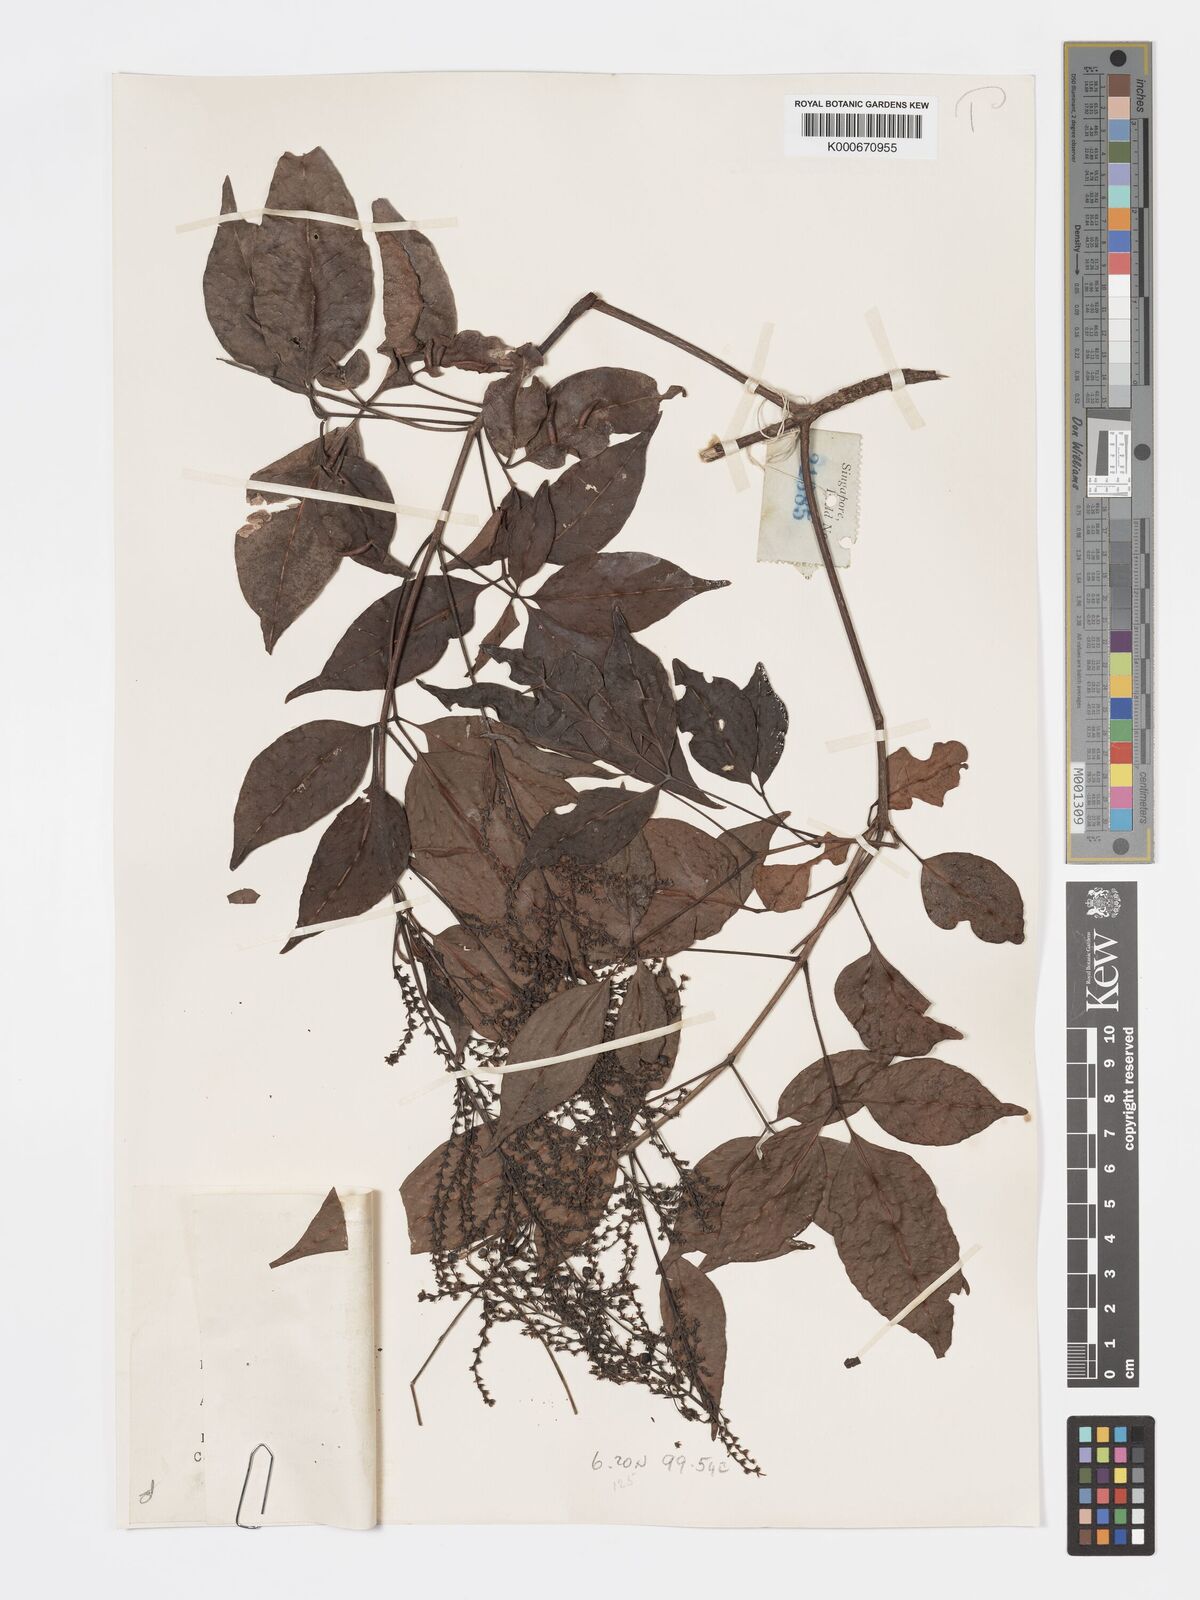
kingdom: Plantae
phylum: Tracheophyta
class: Magnoliopsida
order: Lamiales
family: Lamiaceae
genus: Vitex
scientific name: Vitex siamica
